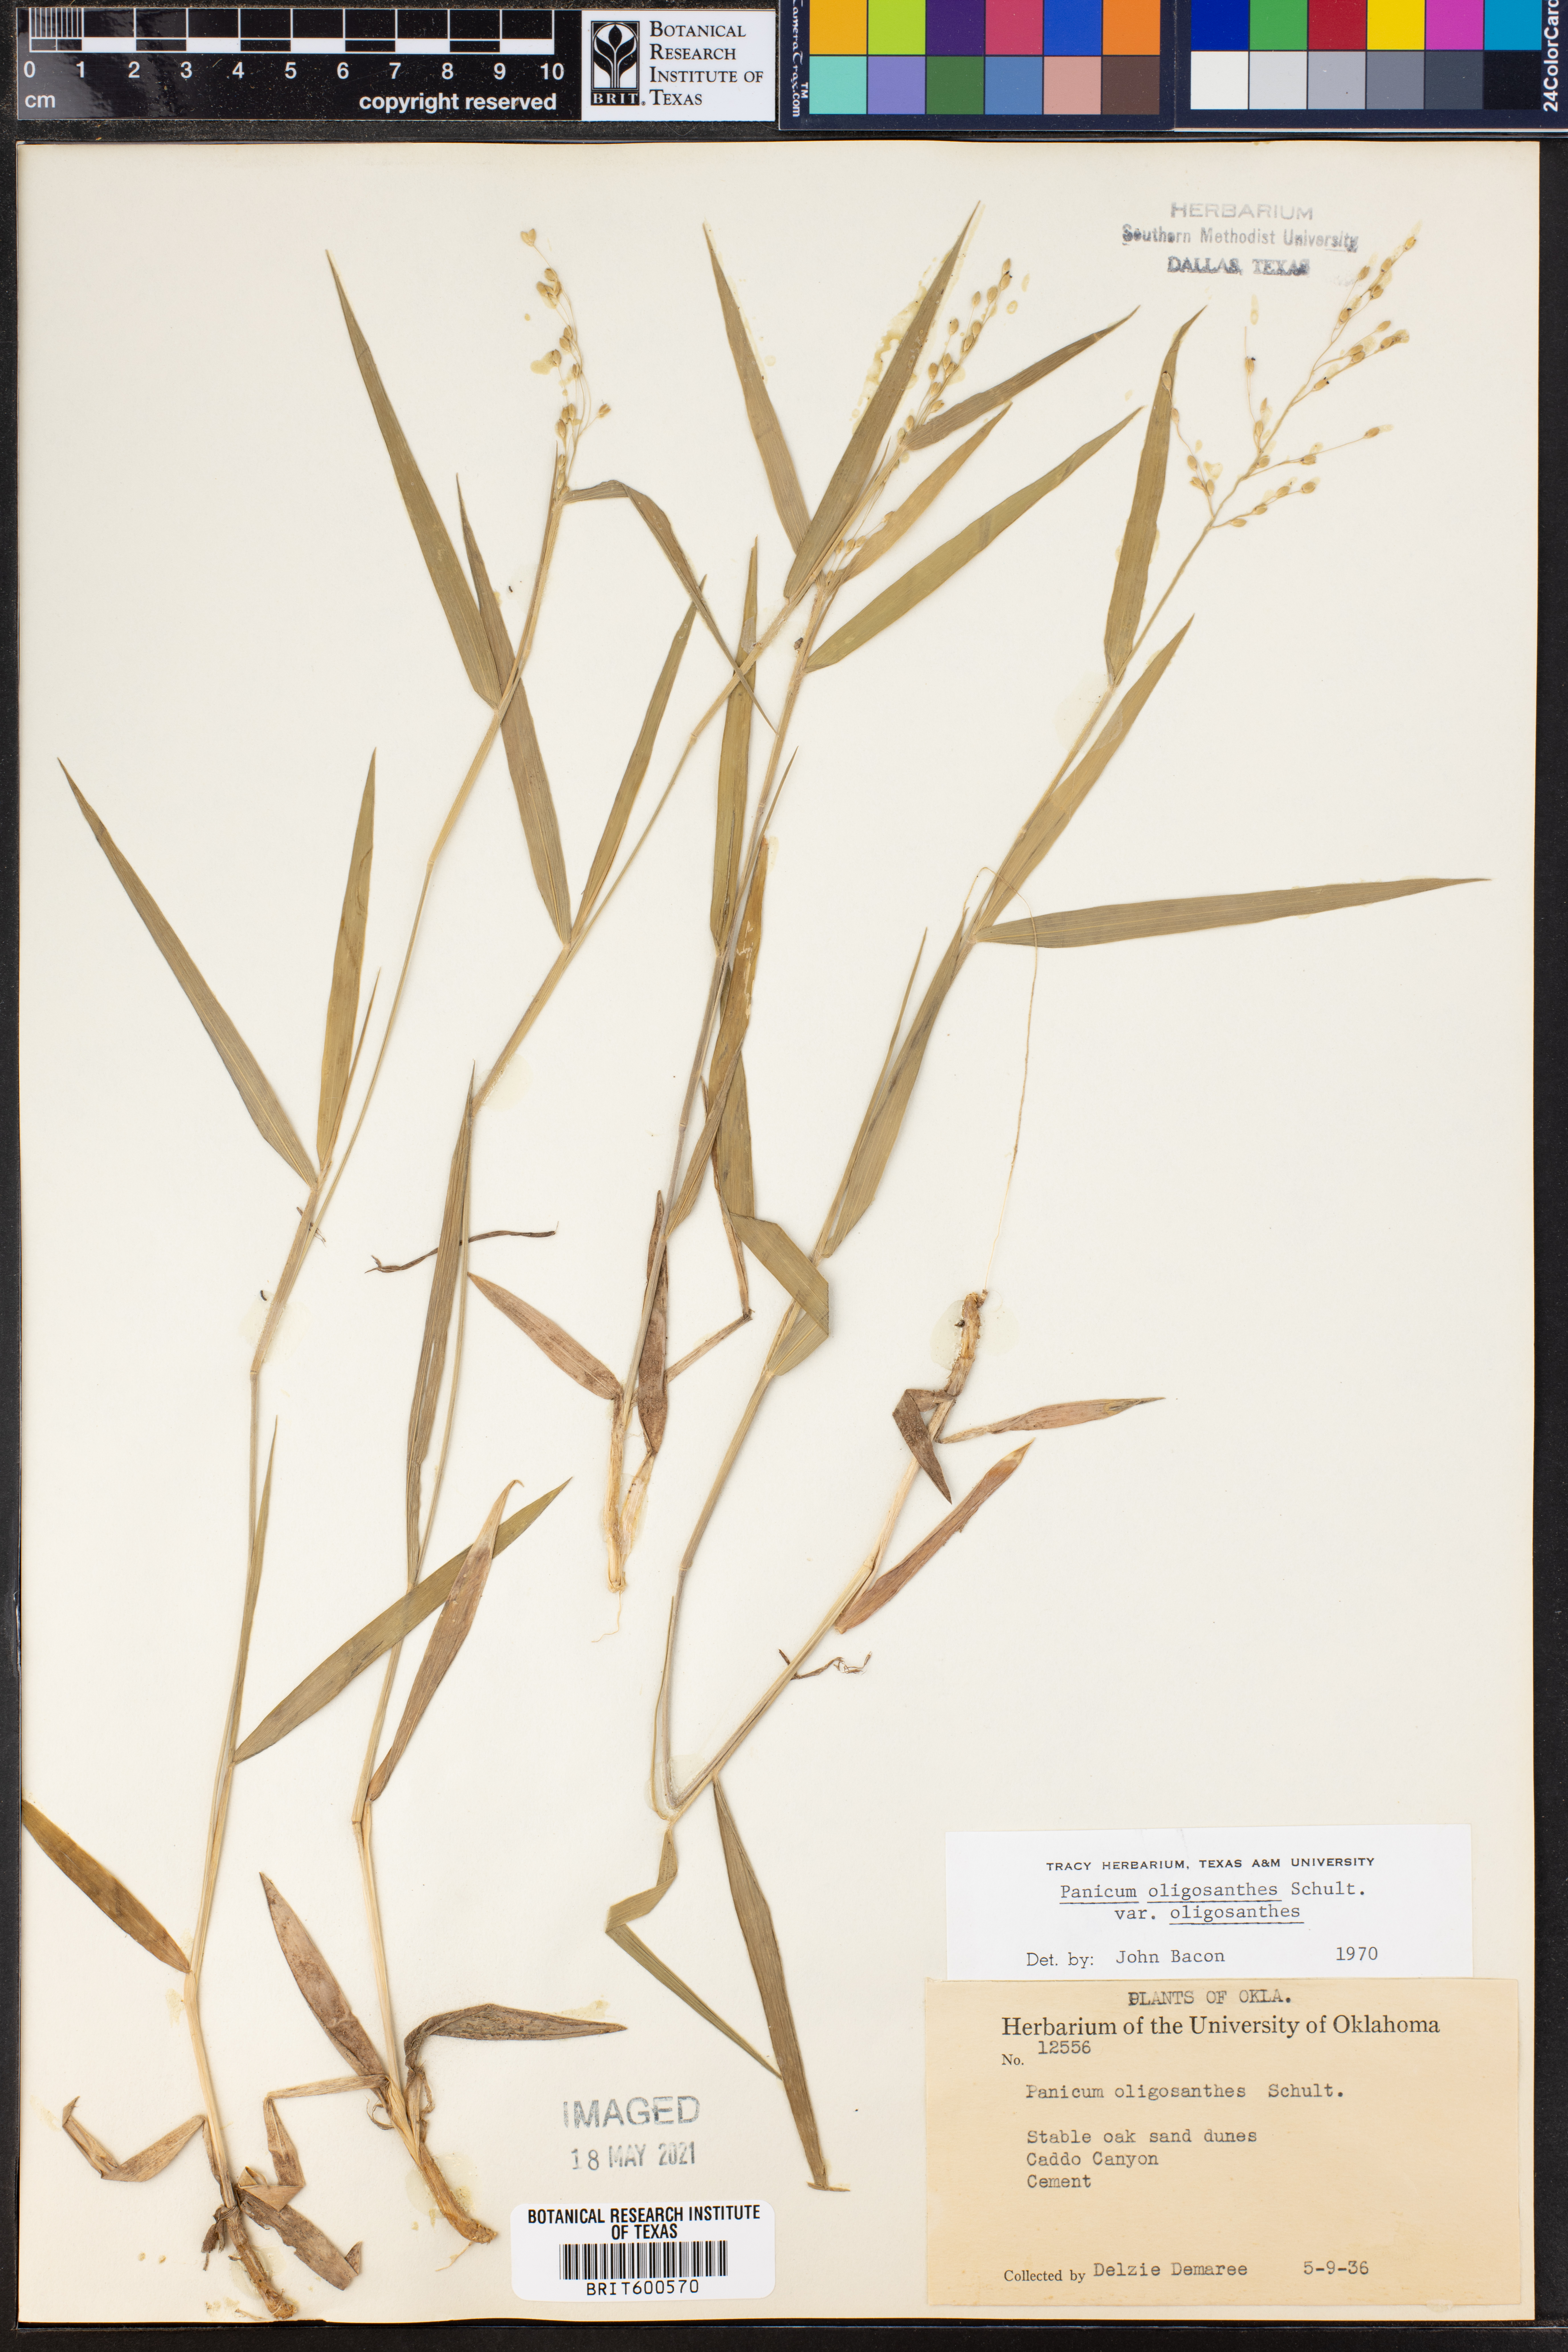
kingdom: Plantae
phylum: Tracheophyta
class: Liliopsida
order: Poales
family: Poaceae
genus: Dichanthelium
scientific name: Dichanthelium oligosanthes
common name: Few-anther obscuregrass
